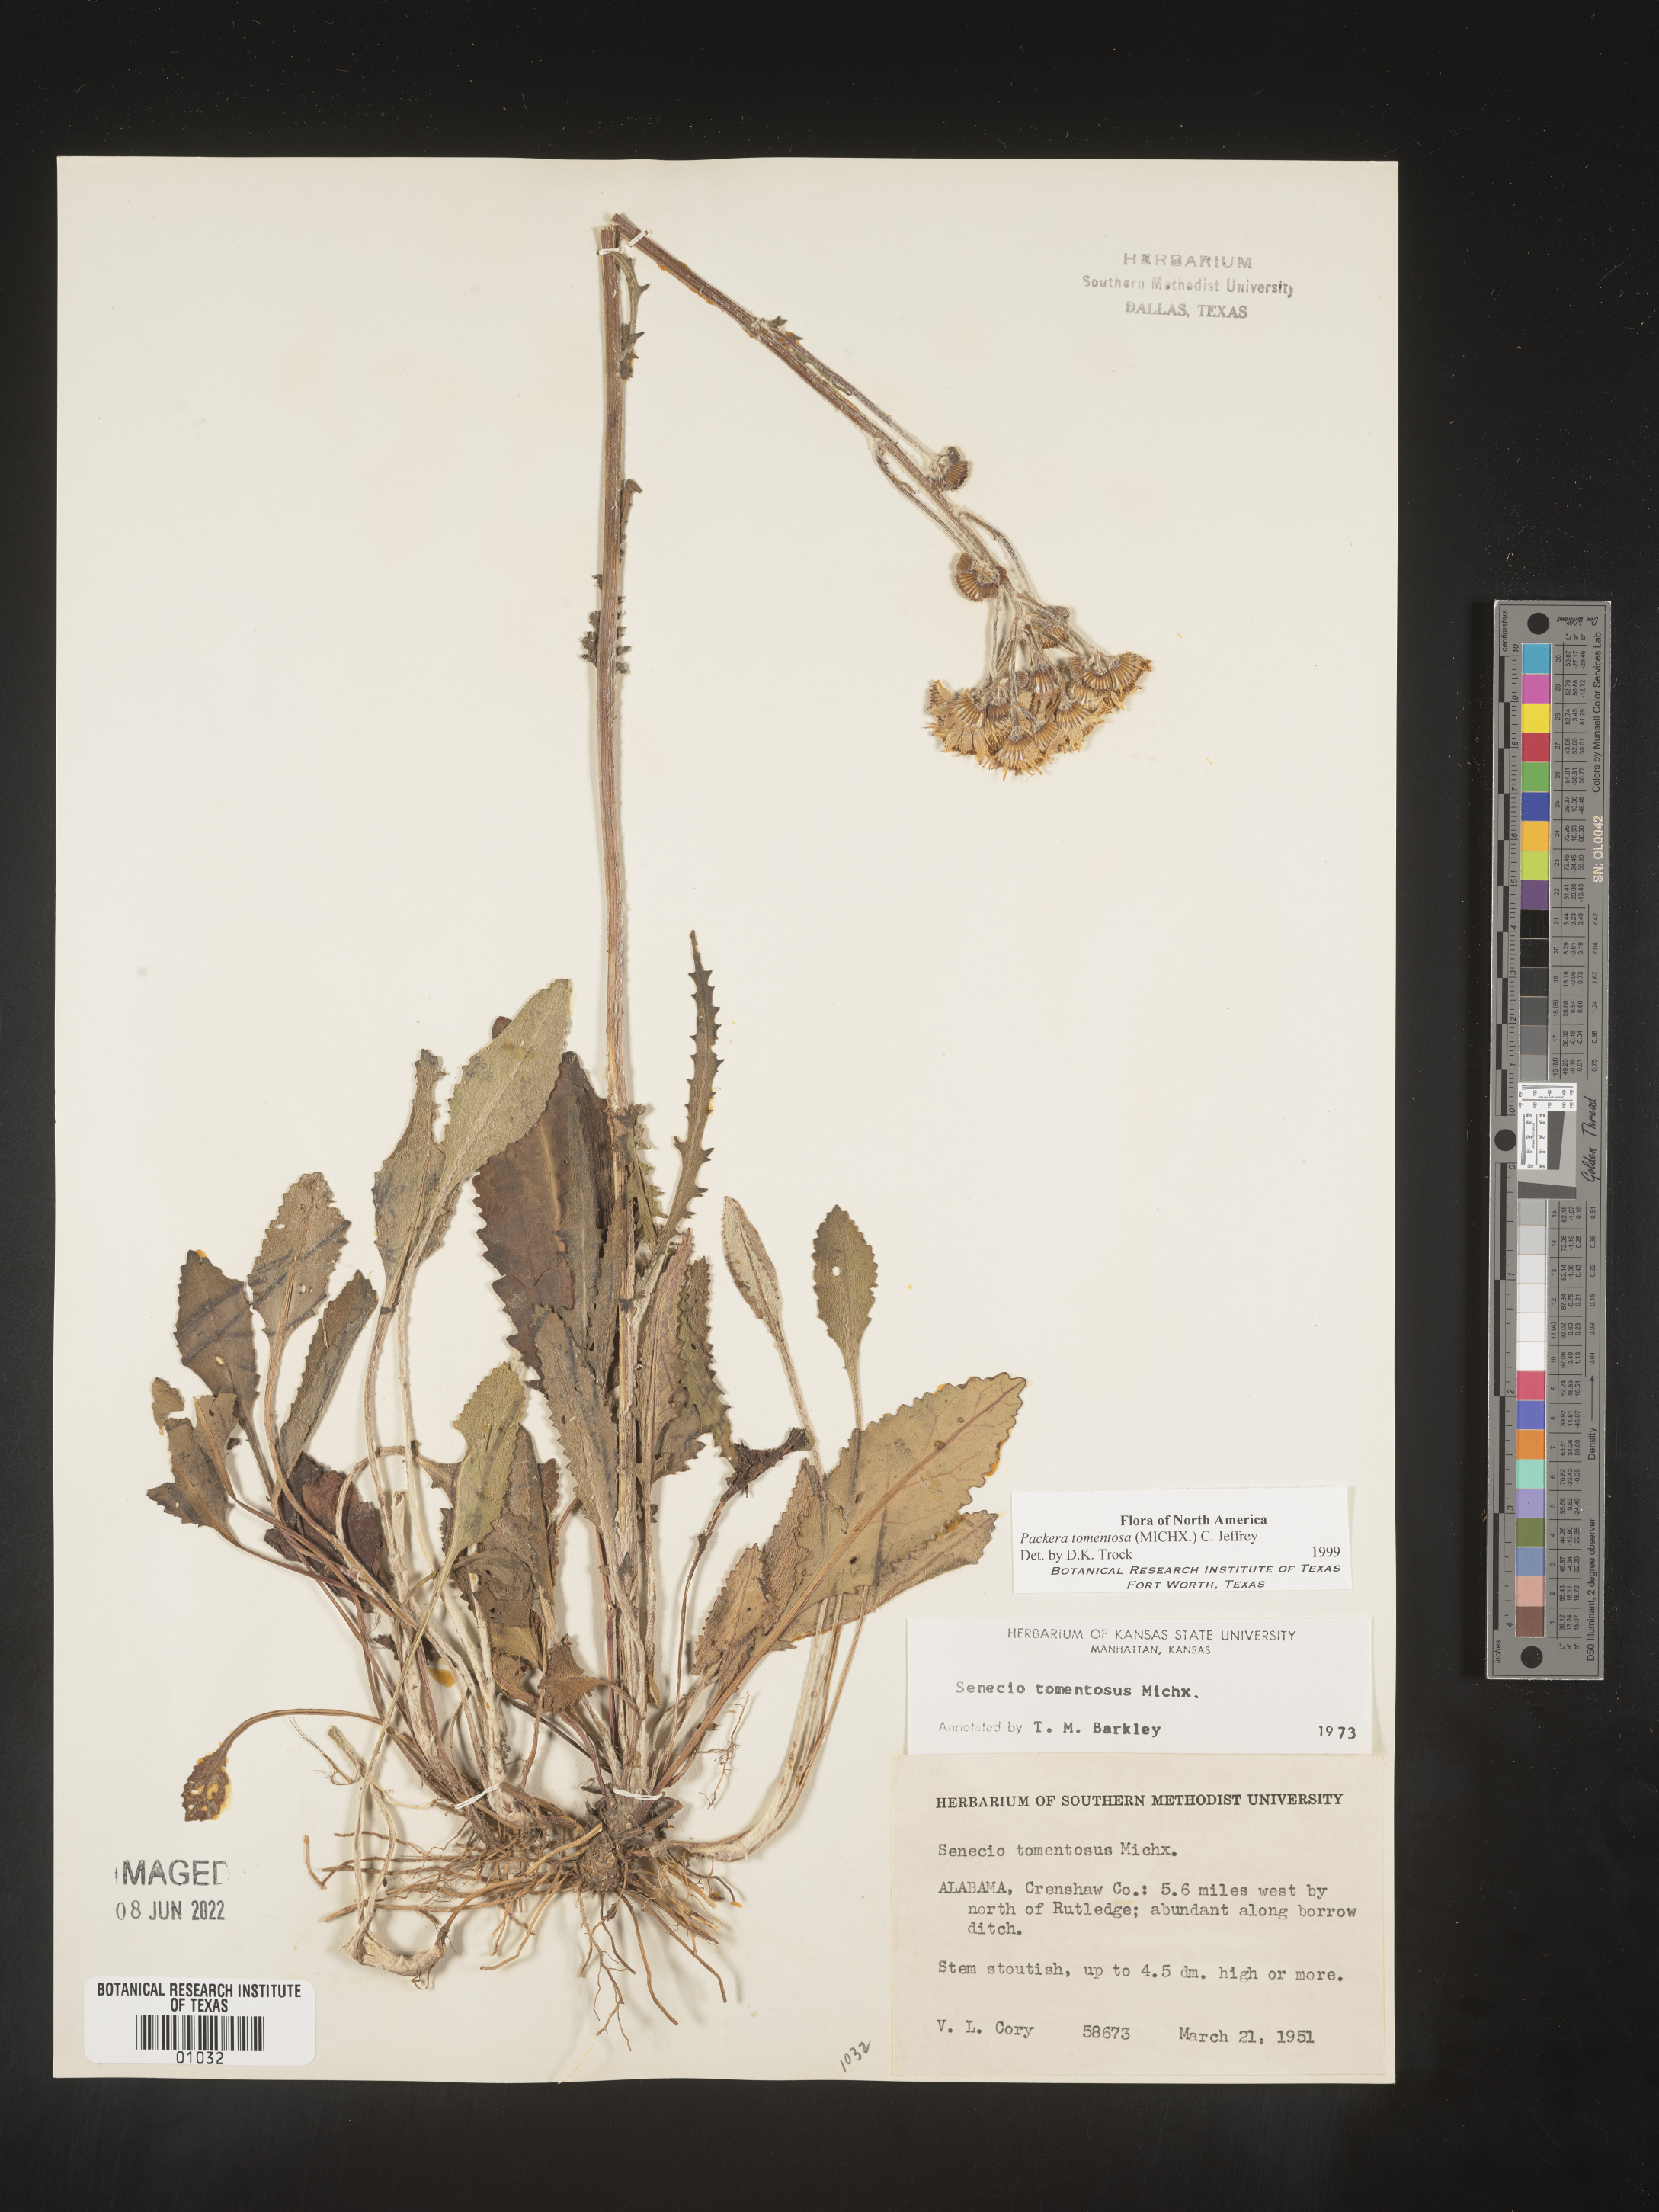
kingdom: Plantae
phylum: Tracheophyta
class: Magnoliopsida
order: Asterales
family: Asteraceae
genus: Packera
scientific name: Packera dubia
